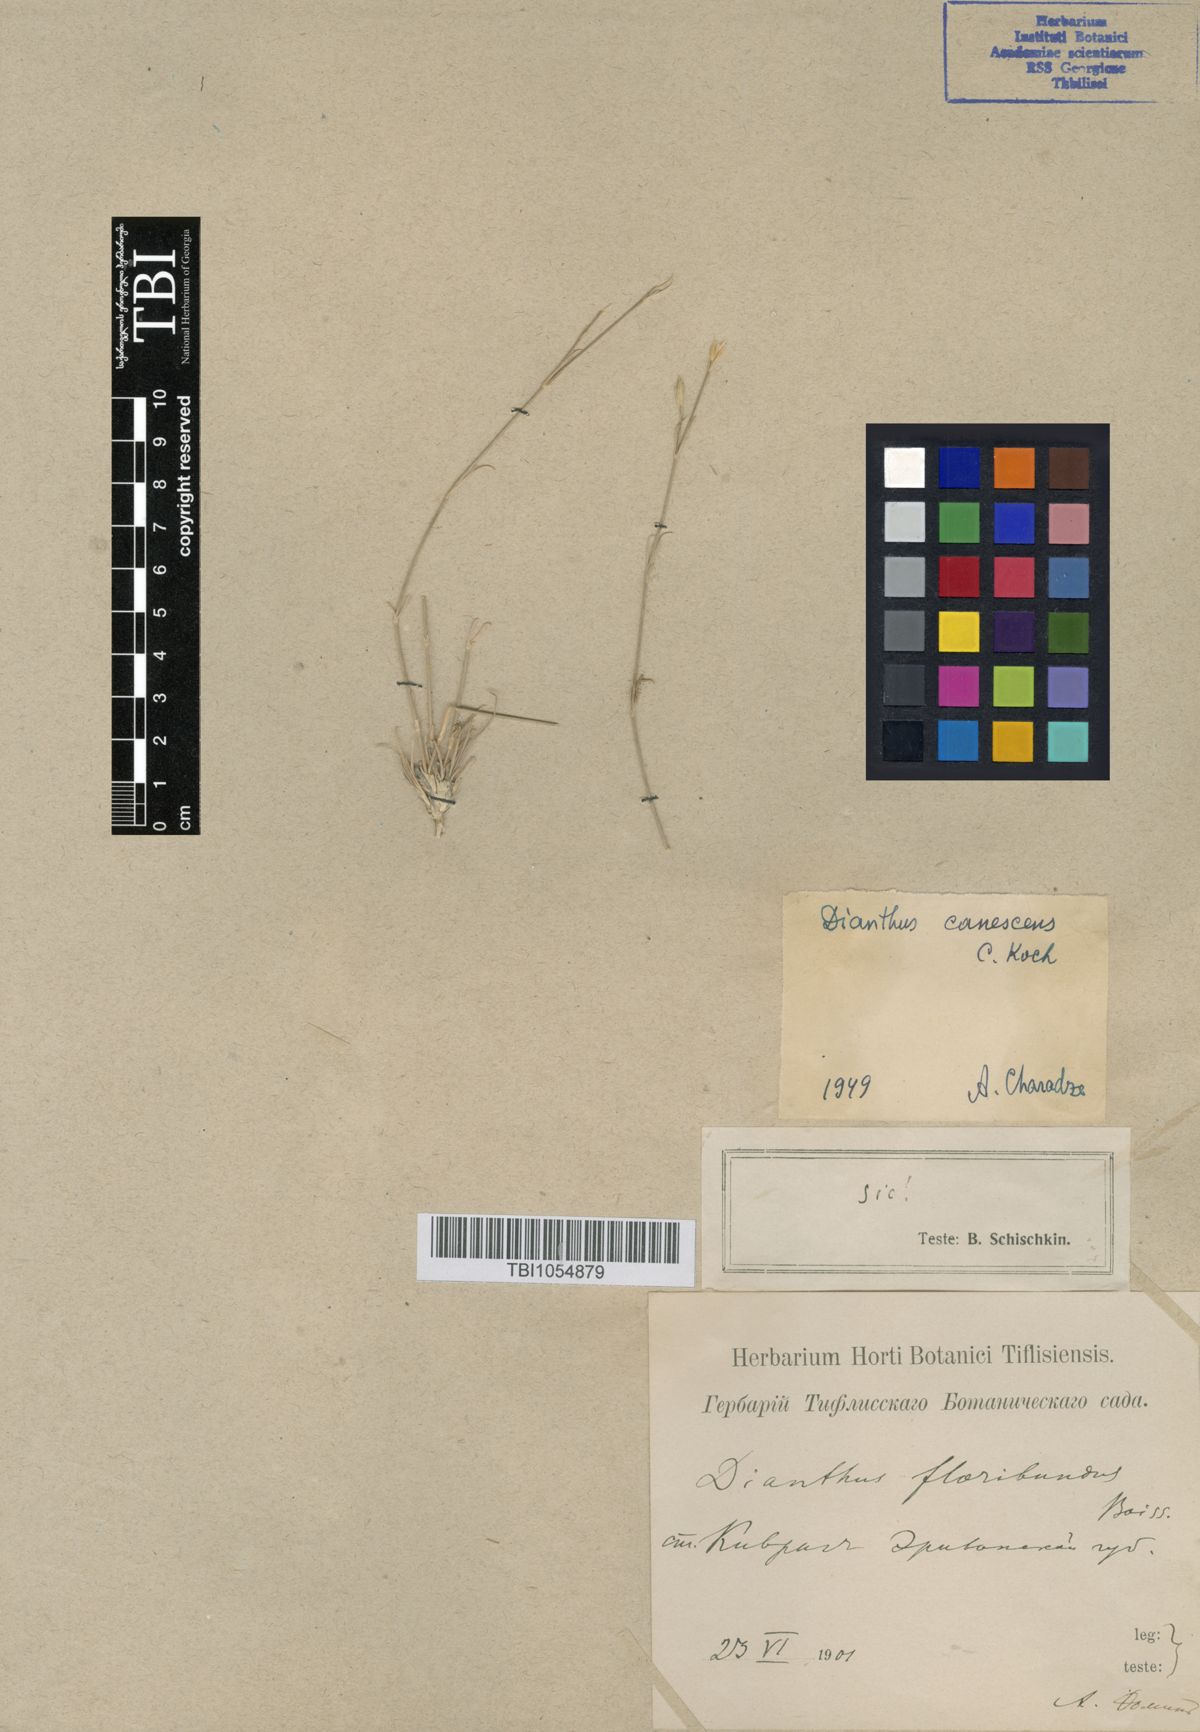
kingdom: Plantae
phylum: Tracheophyta
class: Magnoliopsida
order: Caryophyllales
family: Caryophyllaceae
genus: Dianthus
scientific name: Dianthus orientalis
